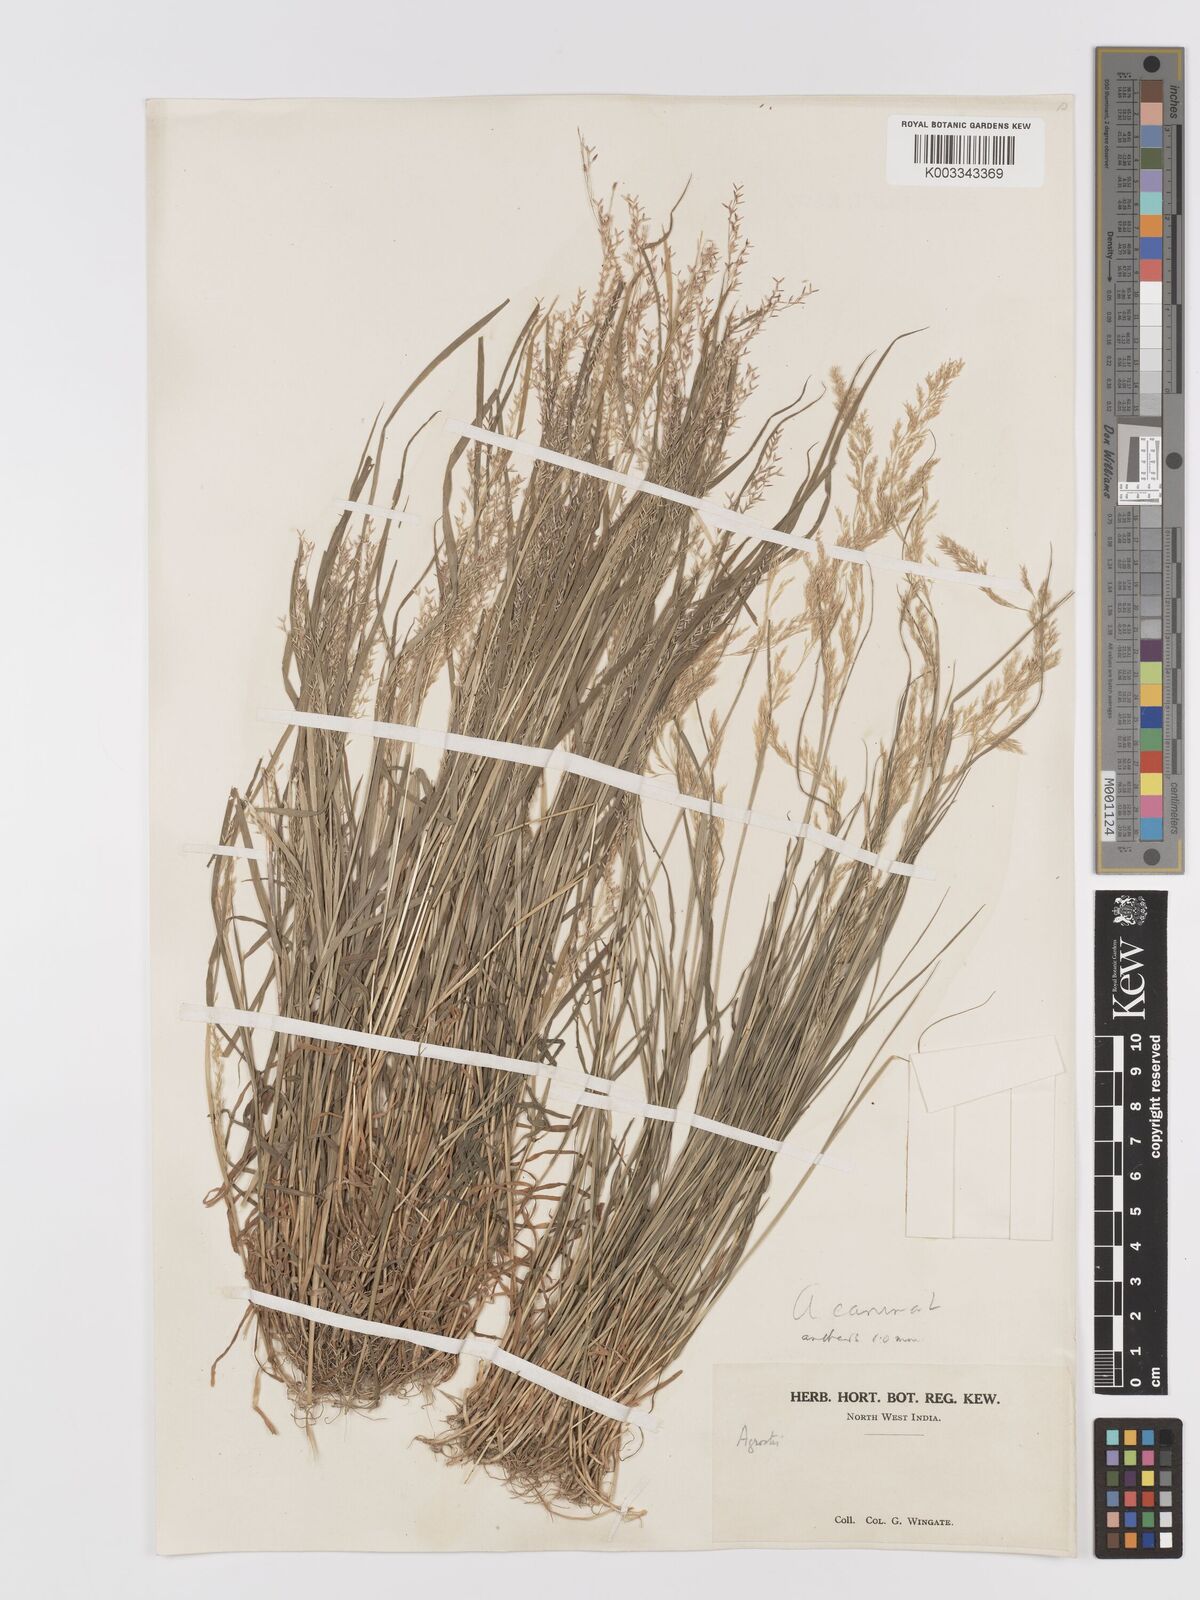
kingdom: Plantae
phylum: Tracheophyta
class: Liliopsida
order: Poales
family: Poaceae
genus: Agrostis
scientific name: Agrostis
